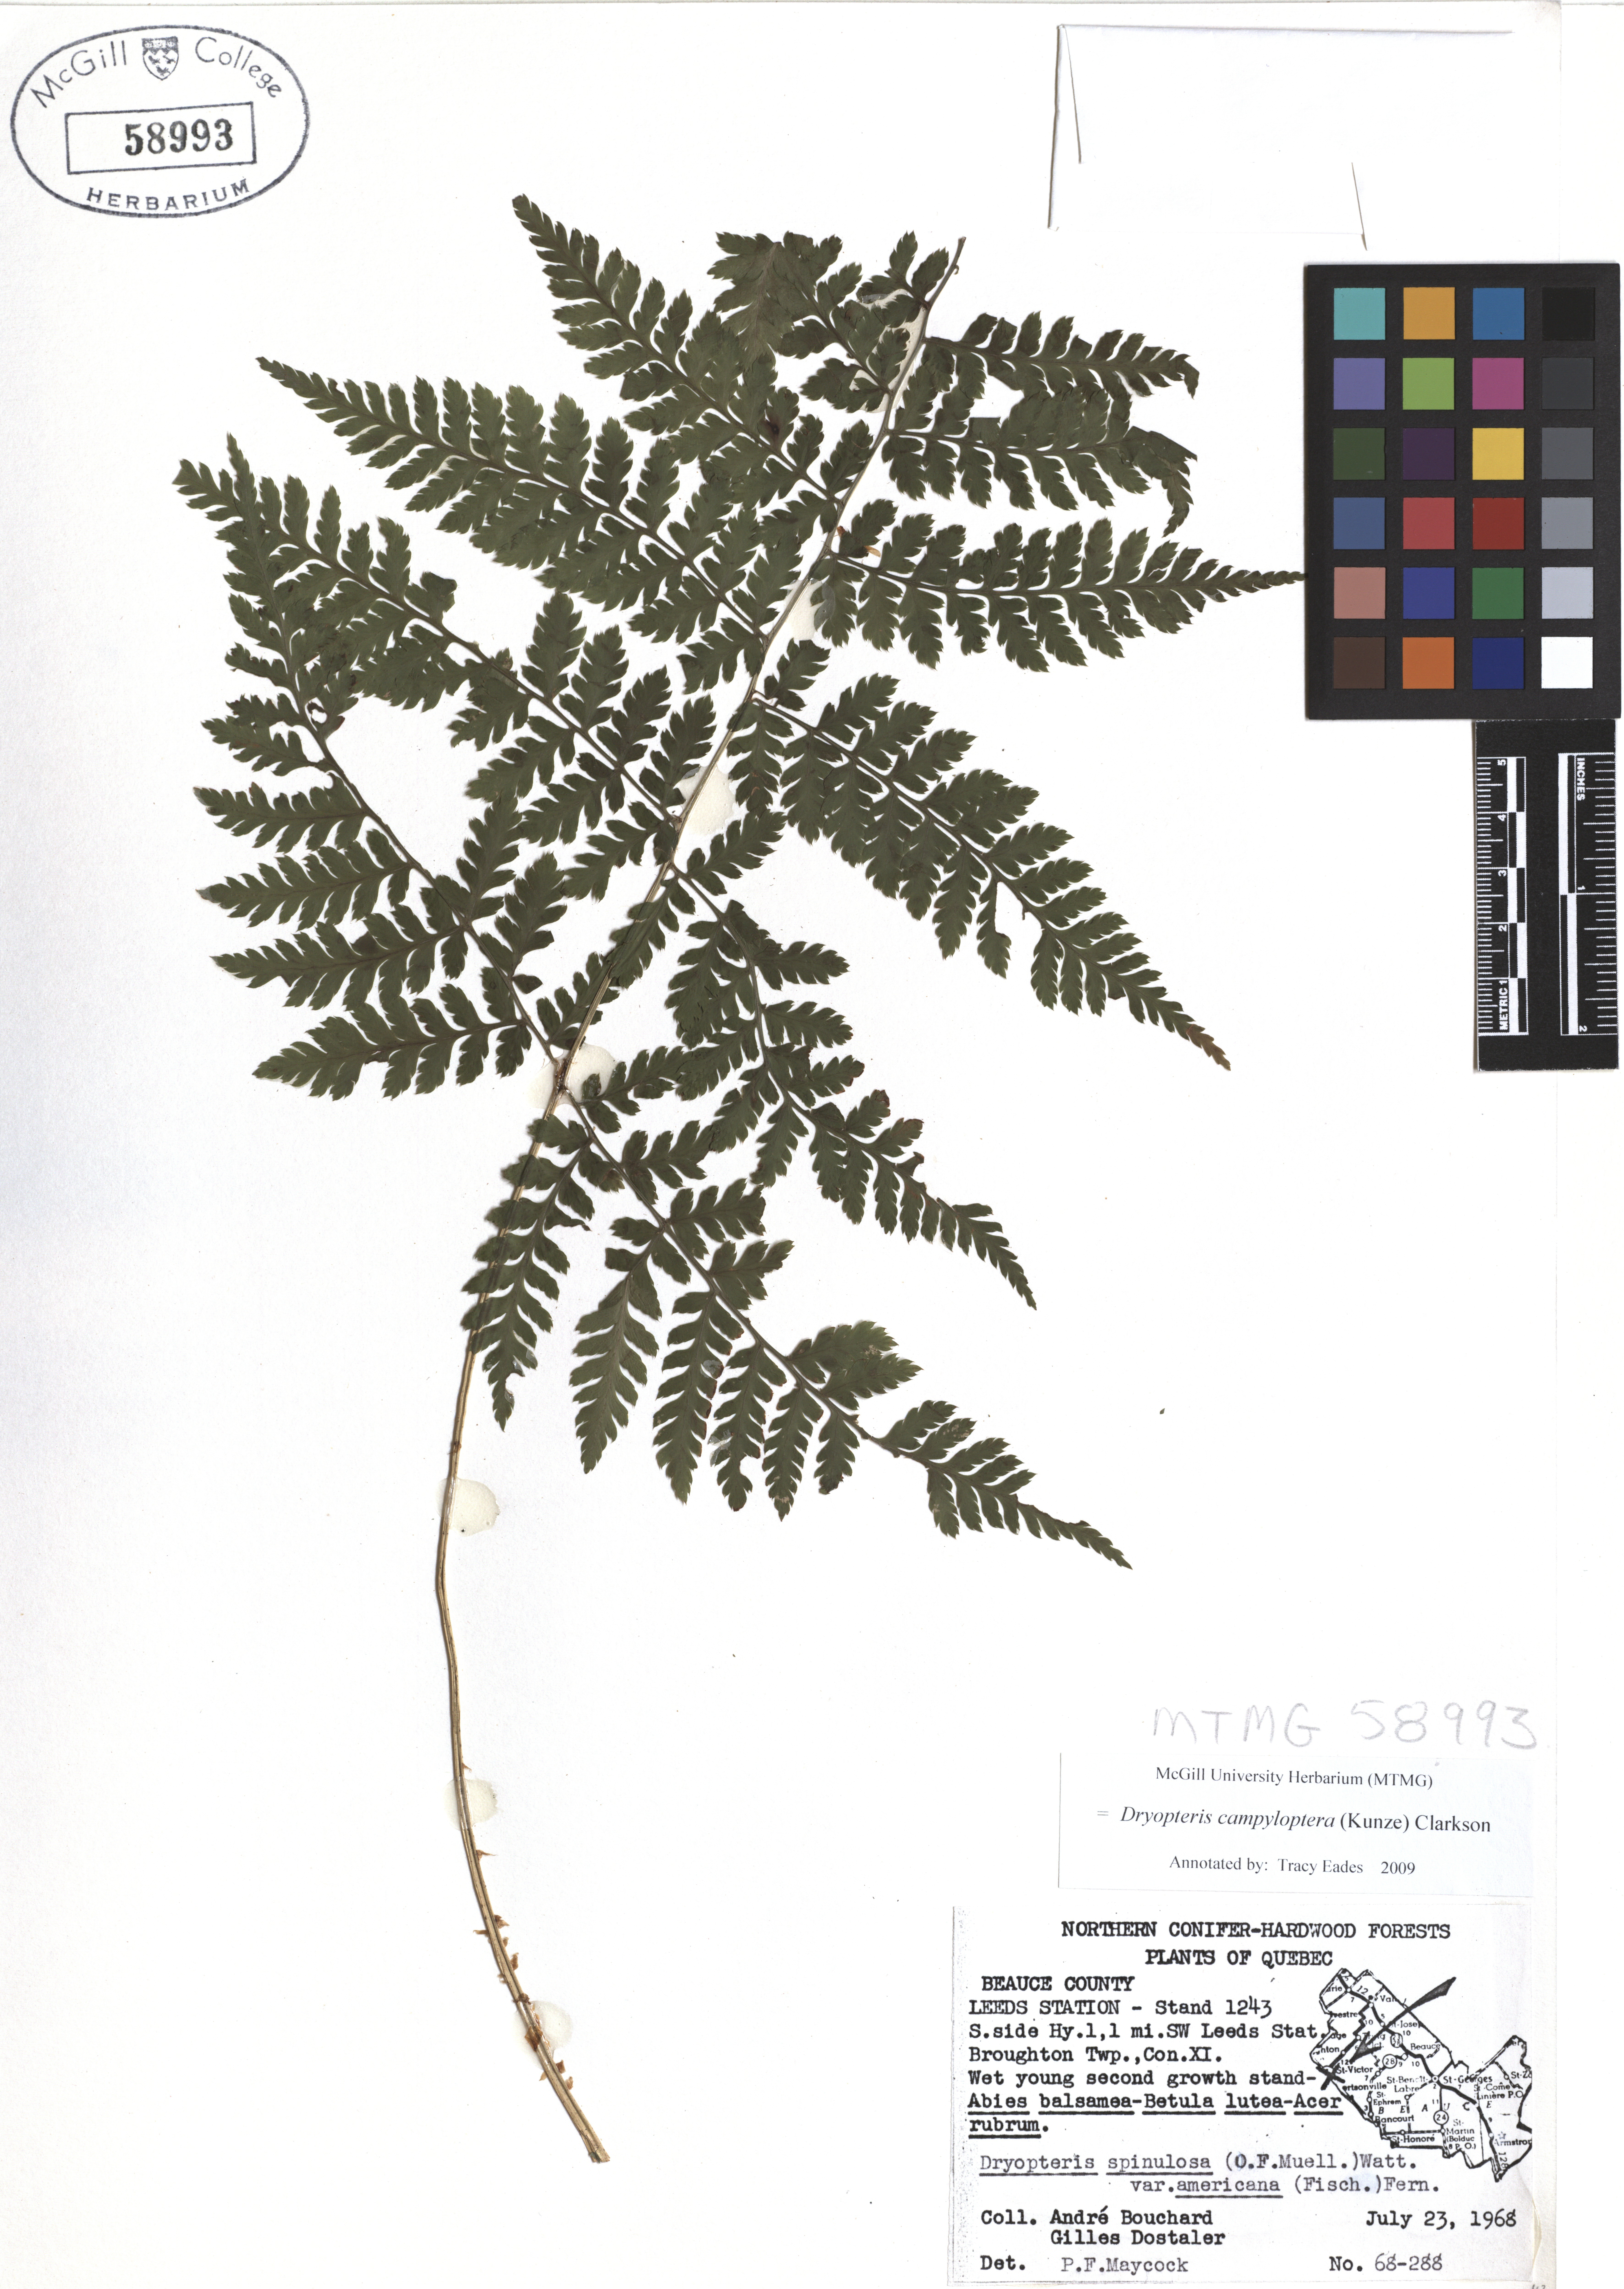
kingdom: Plantae
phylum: Tracheophyta
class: Polypodiopsida
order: Polypodiales
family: Dryopteridaceae
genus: Dryopteris
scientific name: Dryopteris campyloptera
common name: Mountain wood fern
